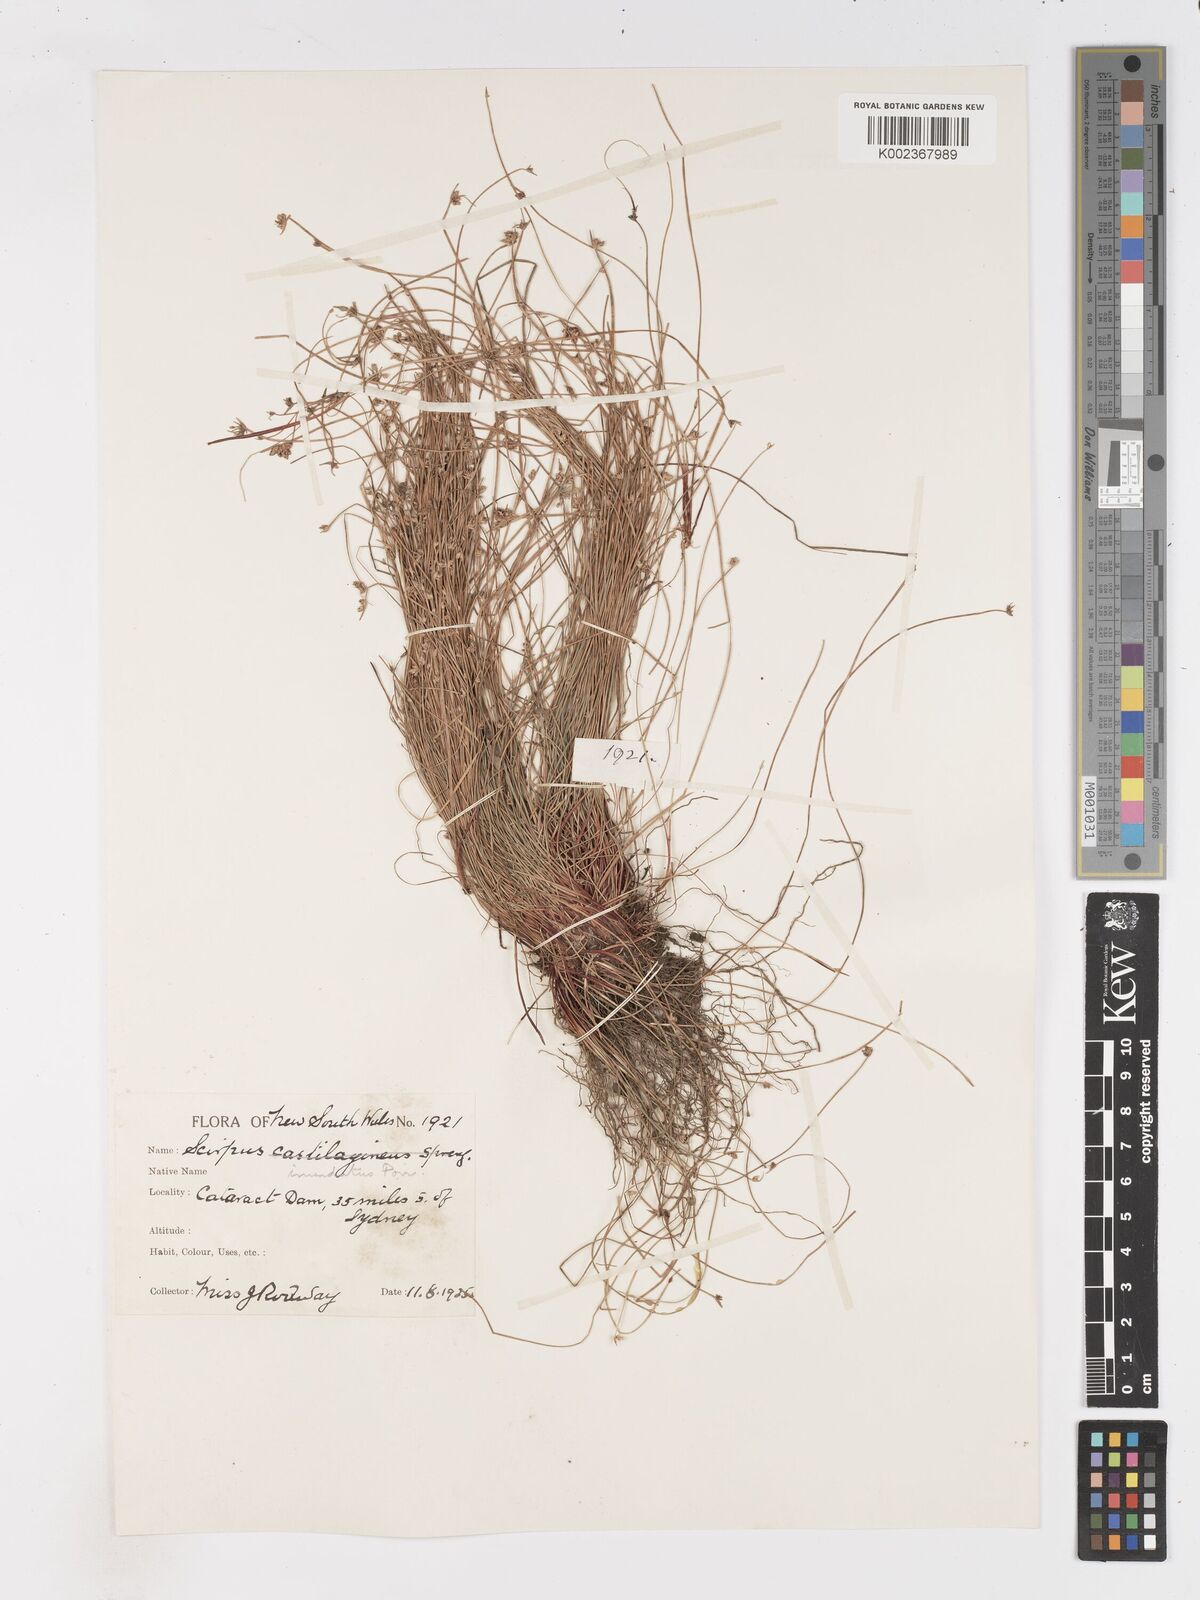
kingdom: Plantae
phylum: Tracheophyta
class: Liliopsida
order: Poales
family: Cyperaceae
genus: Isolepis
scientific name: Isolepis inundata
